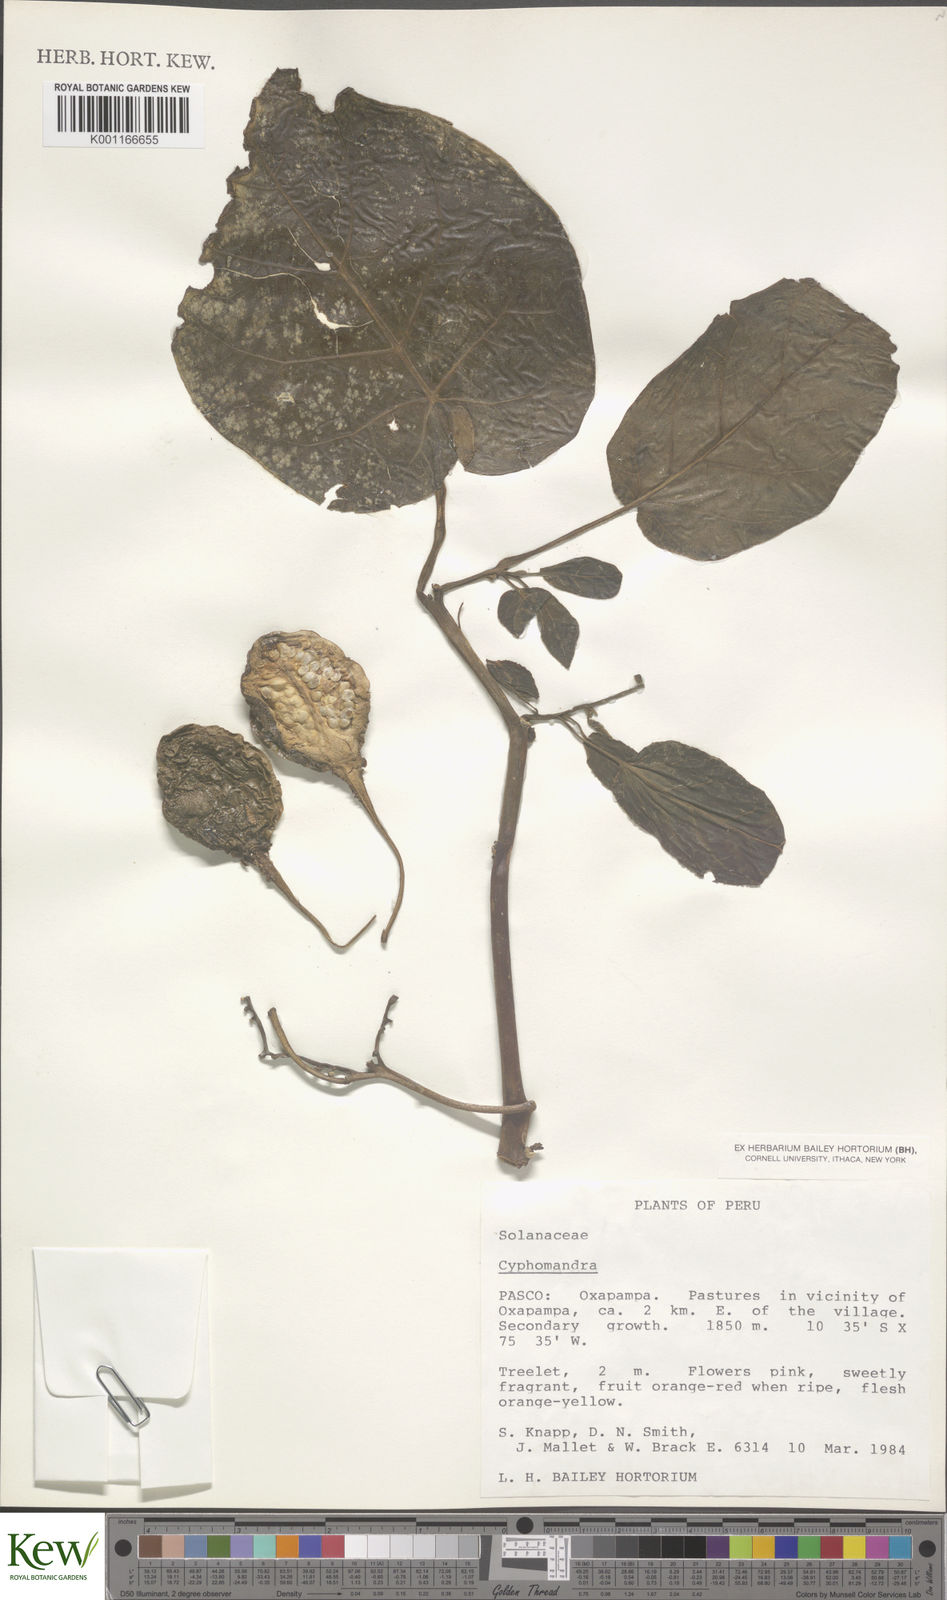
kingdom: Plantae
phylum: Tracheophyta
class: Magnoliopsida
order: Solanales
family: Solanaceae
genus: Solanum
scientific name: Solanum
